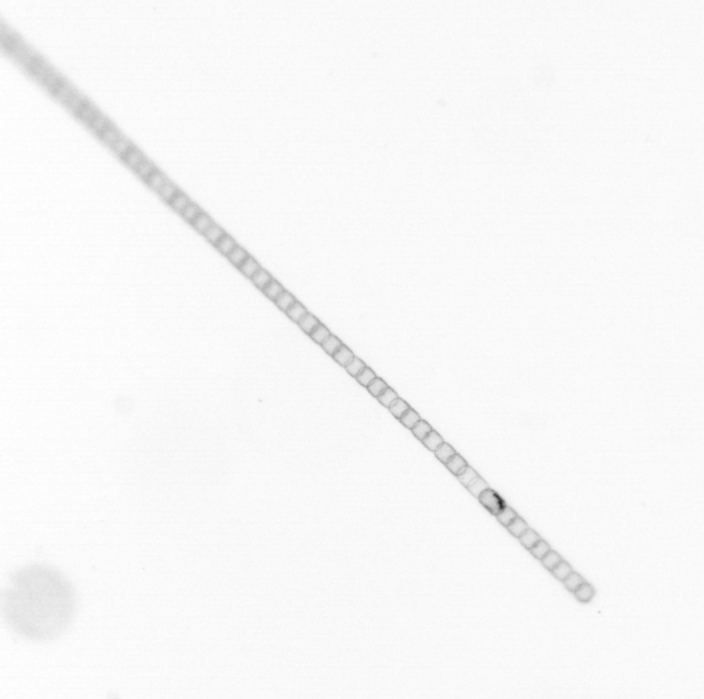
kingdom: Chromista
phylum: Ochrophyta
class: Bacillariophyceae
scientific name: Bacillariophyceae
